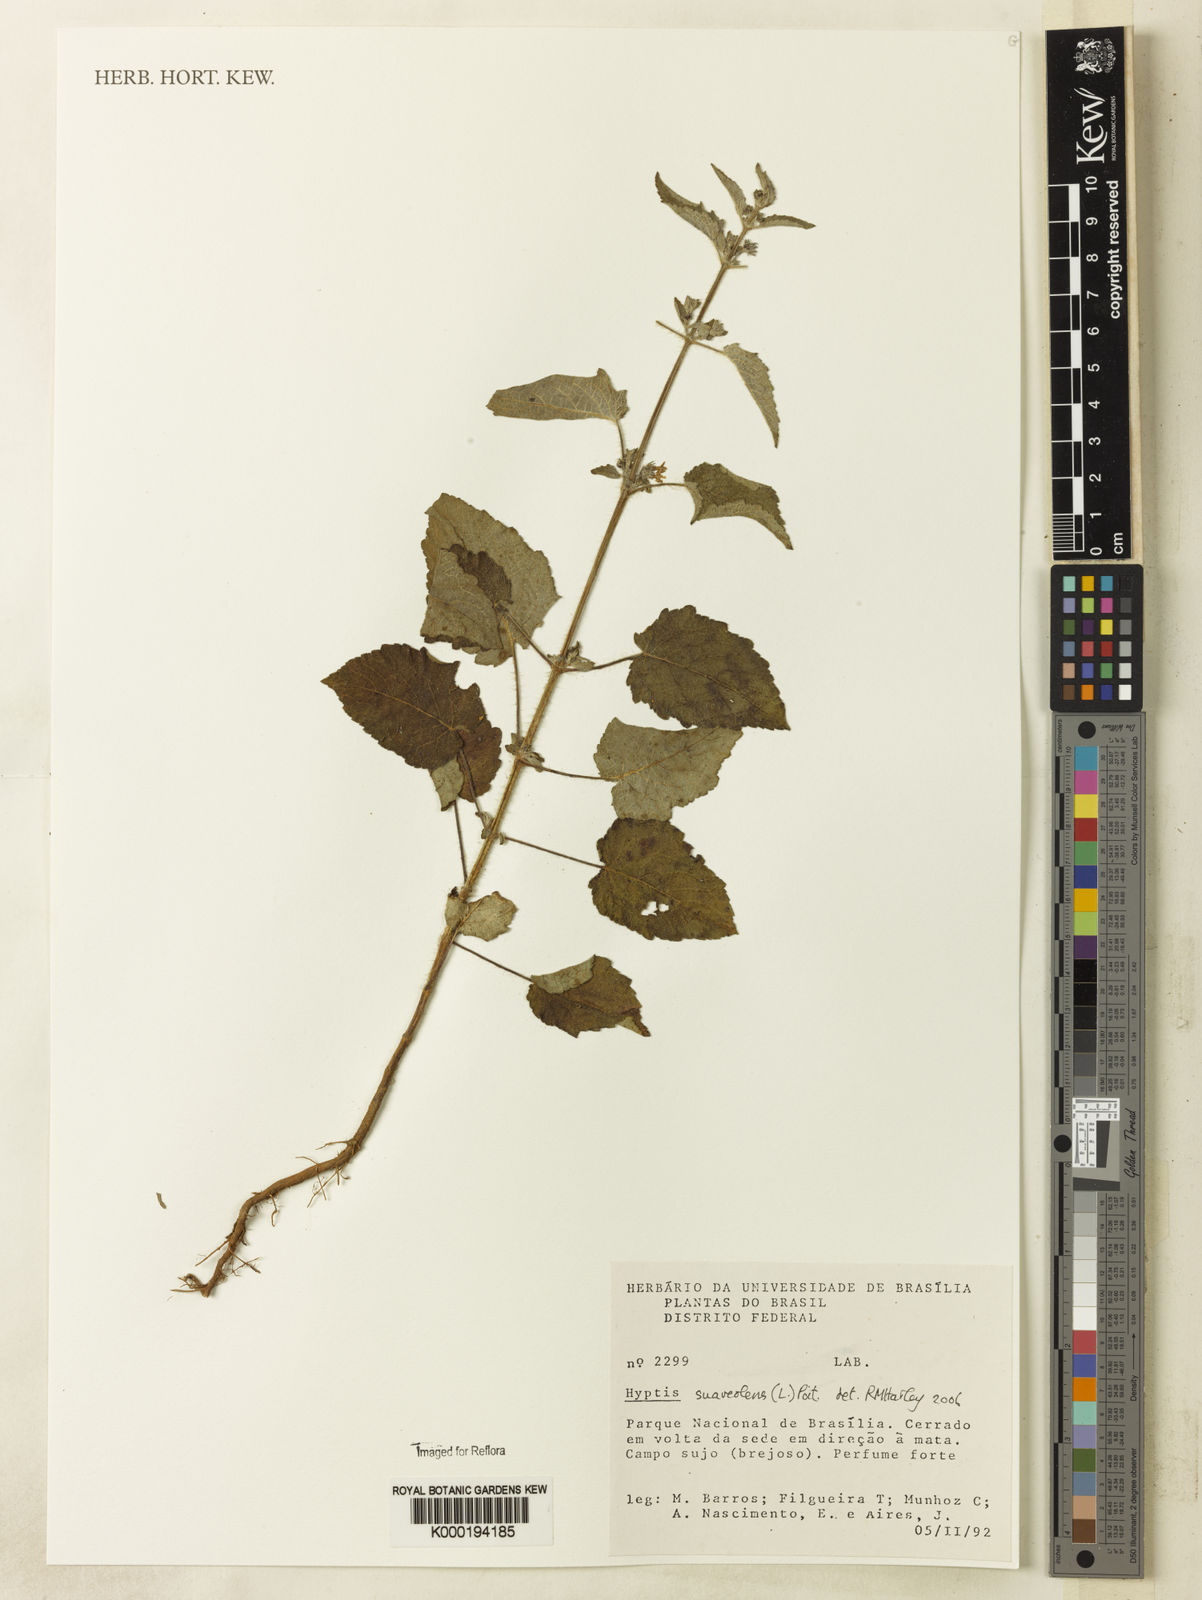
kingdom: Plantae
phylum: Tracheophyta
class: Magnoliopsida
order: Lamiales
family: Lamiaceae
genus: Mesosphaerum
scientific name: Mesosphaerum suaveolens
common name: Pignut
